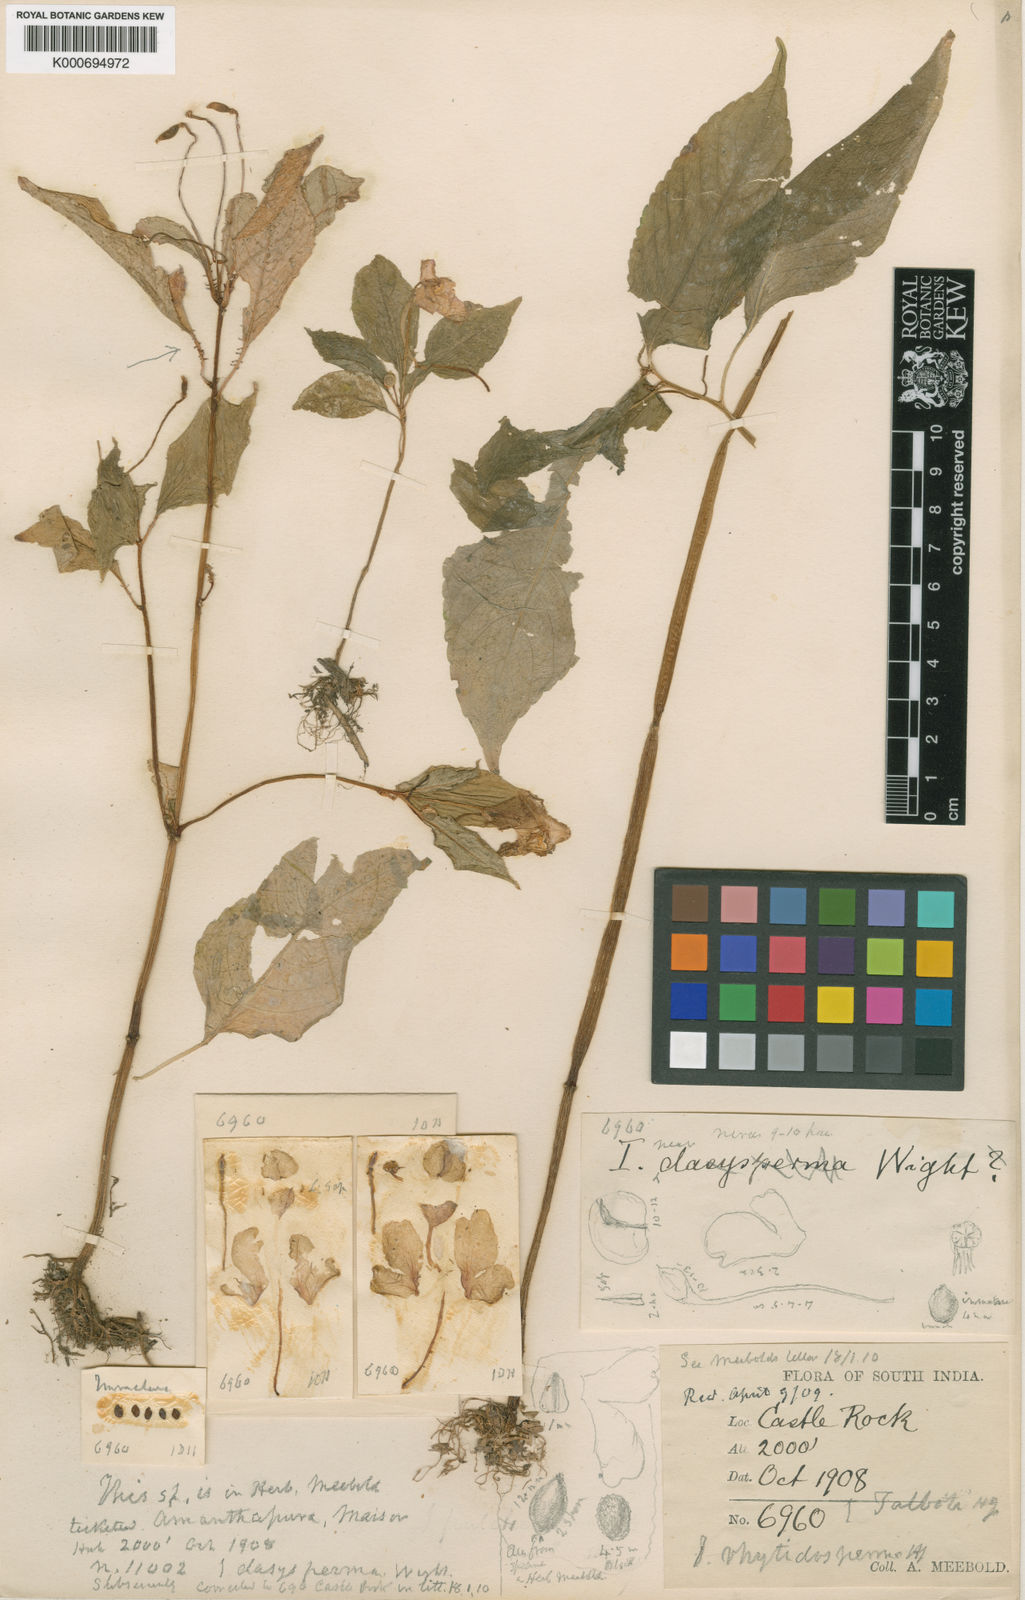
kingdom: Plantae
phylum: Tracheophyta
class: Magnoliopsida
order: Ericales
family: Balsaminaceae
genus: Impatiens
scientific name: Impatiens talbotii
